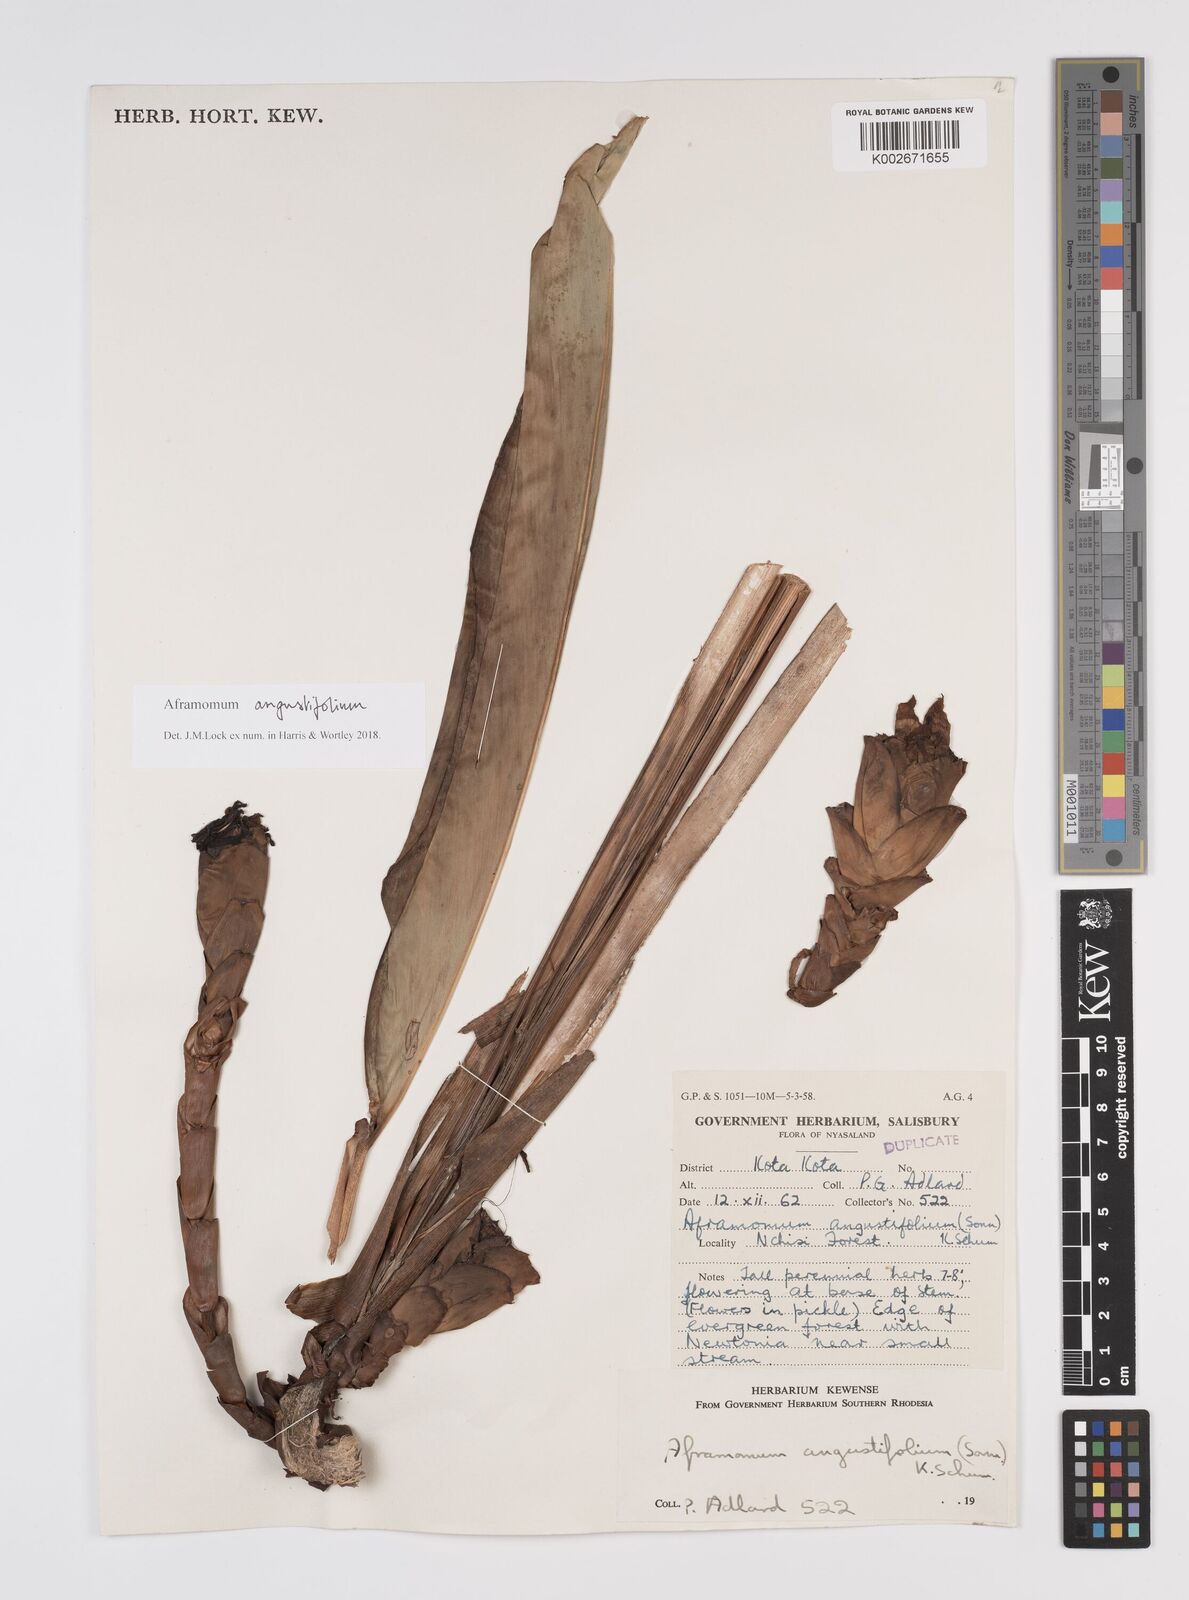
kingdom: Plantae
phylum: Tracheophyta
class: Liliopsida
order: Zingiberales
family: Zingiberaceae
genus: Aframomum
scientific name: Aframomum angustifolium
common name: Guinea grains
